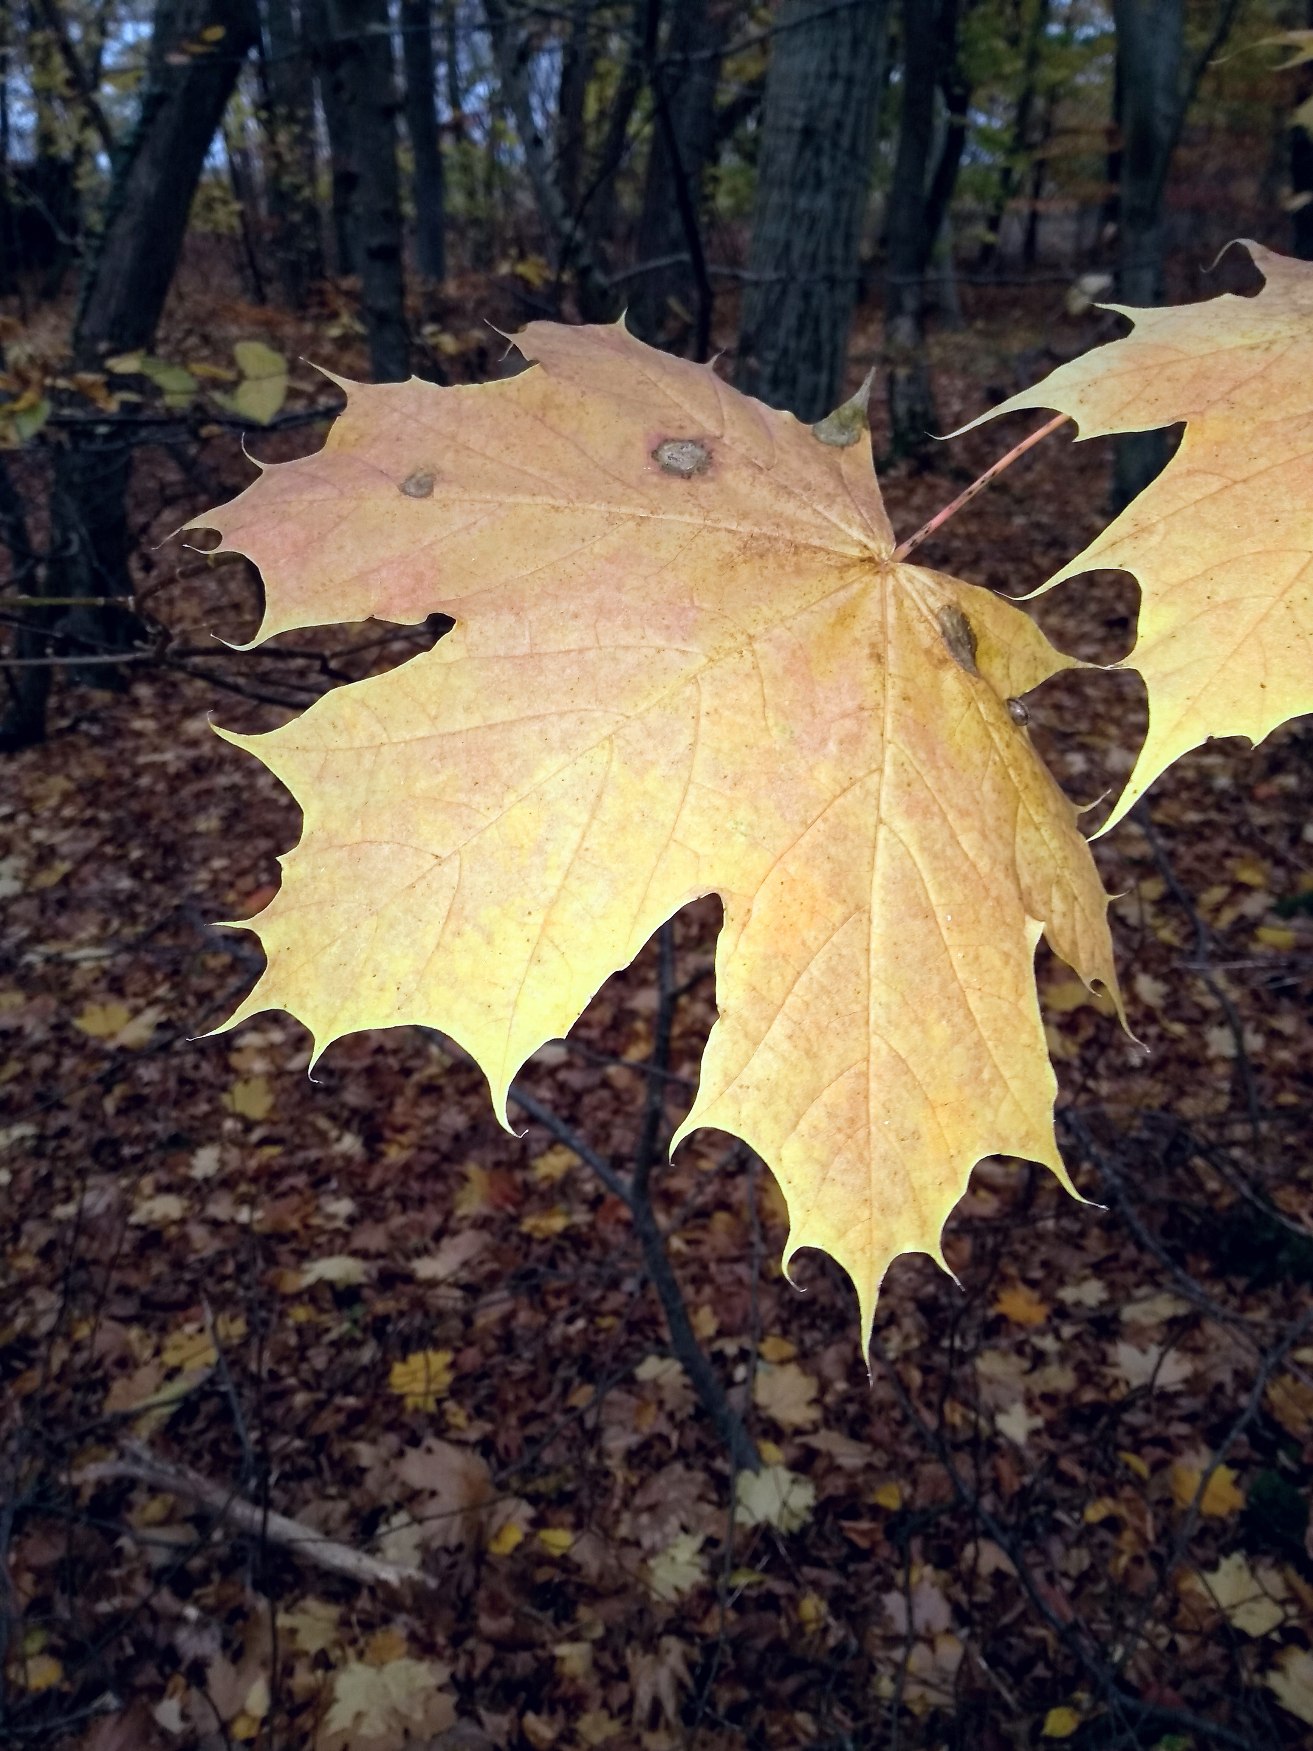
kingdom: Plantae
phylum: Tracheophyta
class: Magnoliopsida
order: Sapindales
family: Sapindaceae
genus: Acer
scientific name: Acer platanoides
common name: Spids-løn
